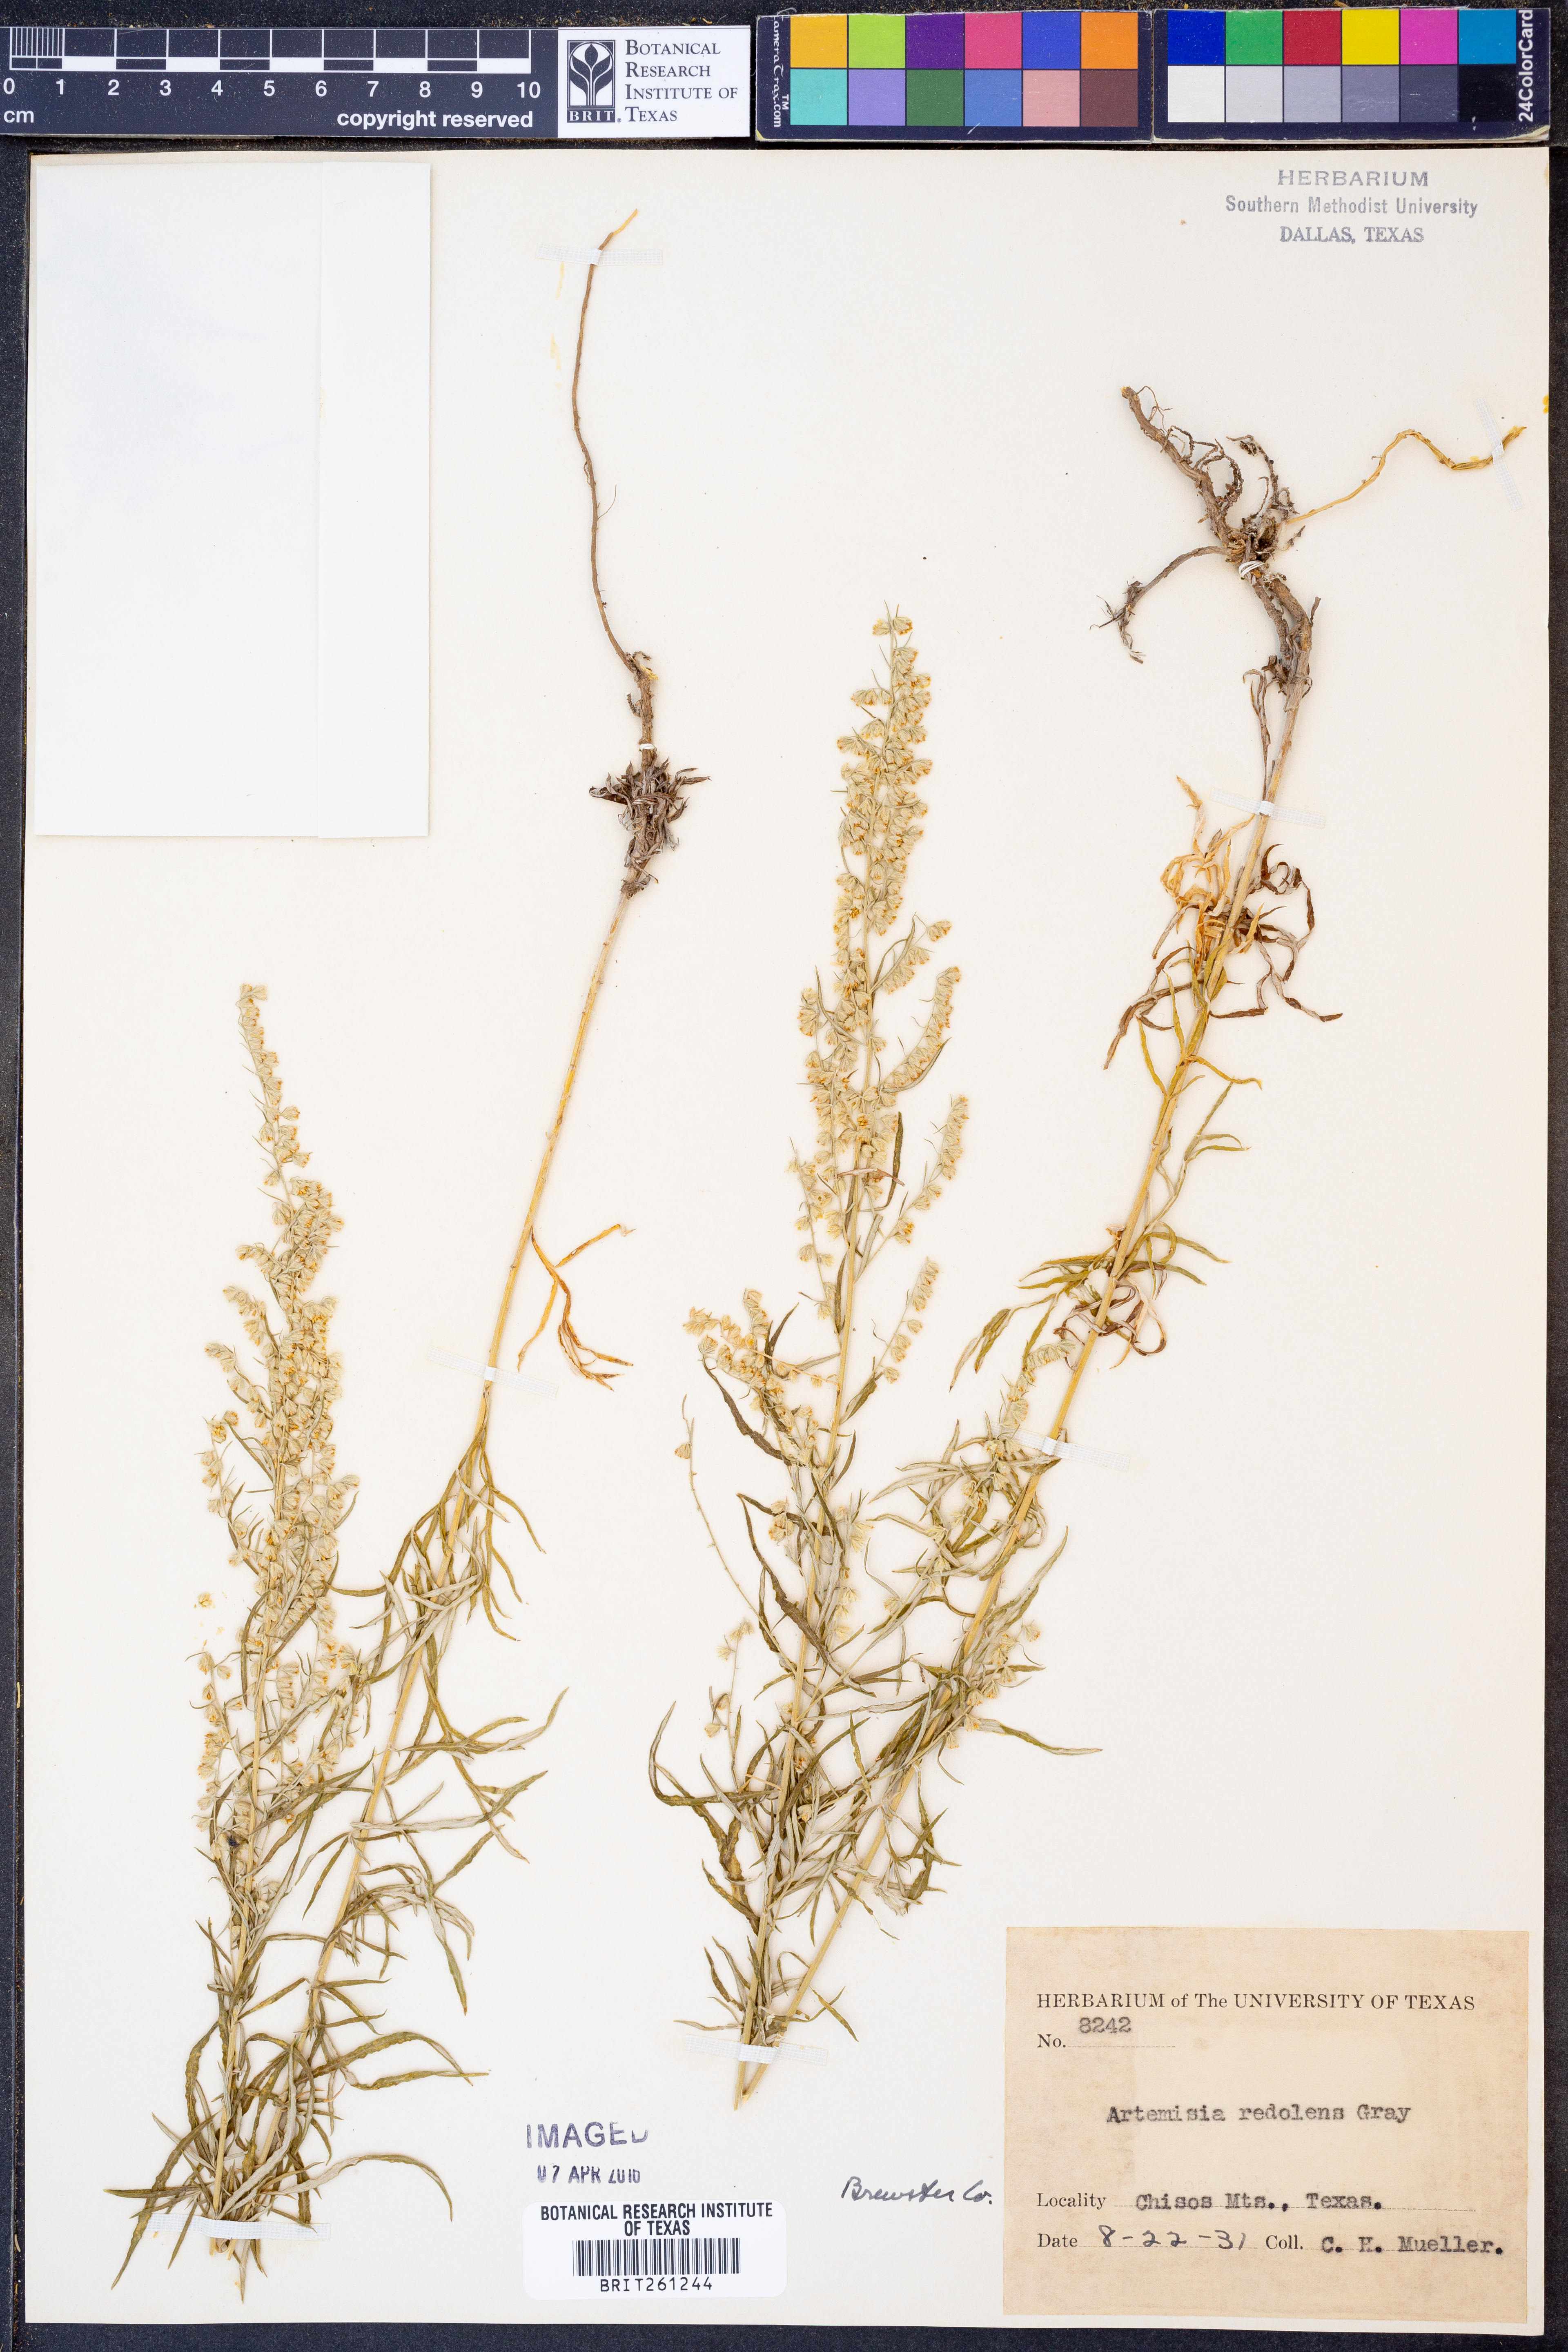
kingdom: Plantae
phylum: Tracheophyta
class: Magnoliopsida
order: Asterales
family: Asteraceae
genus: Artemisia
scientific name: Artemisia ludoviciana
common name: Western mugwort
